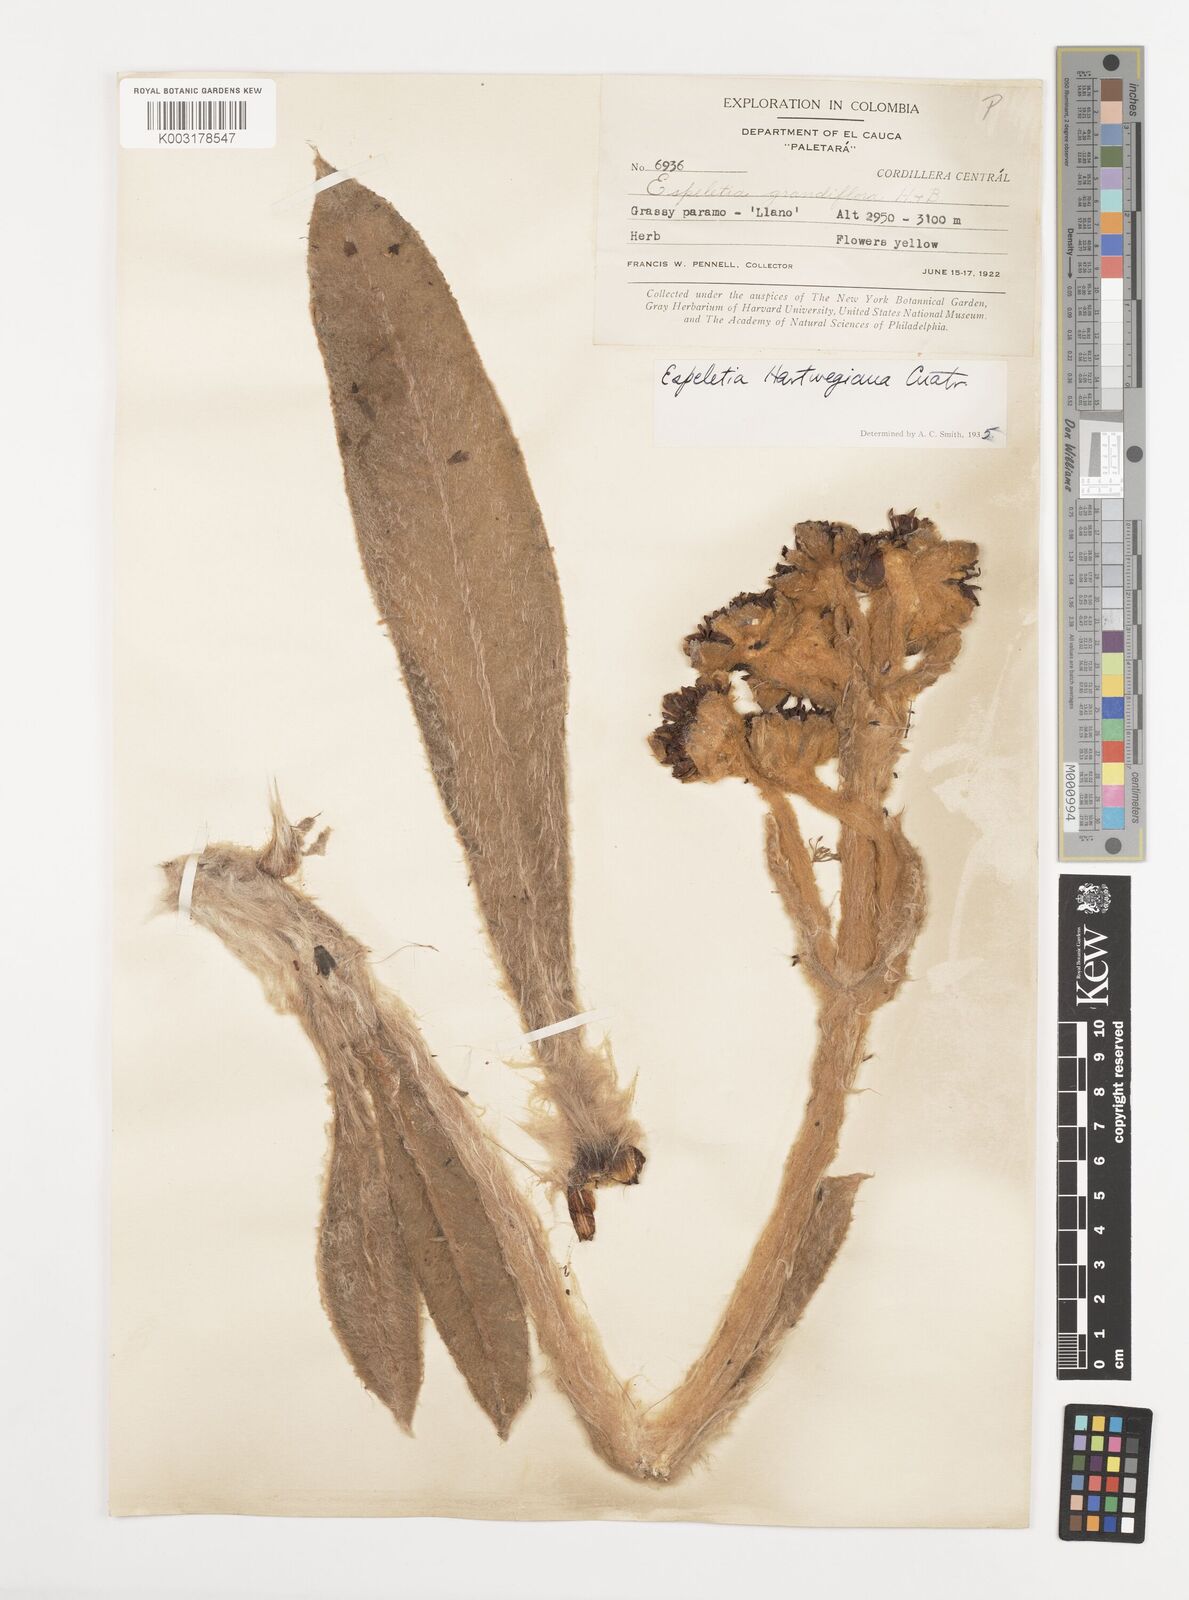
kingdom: Plantae
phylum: Tracheophyta
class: Magnoliopsida
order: Asterales
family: Asteraceae
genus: Espeletia
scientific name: Espeletia hartwegiana
